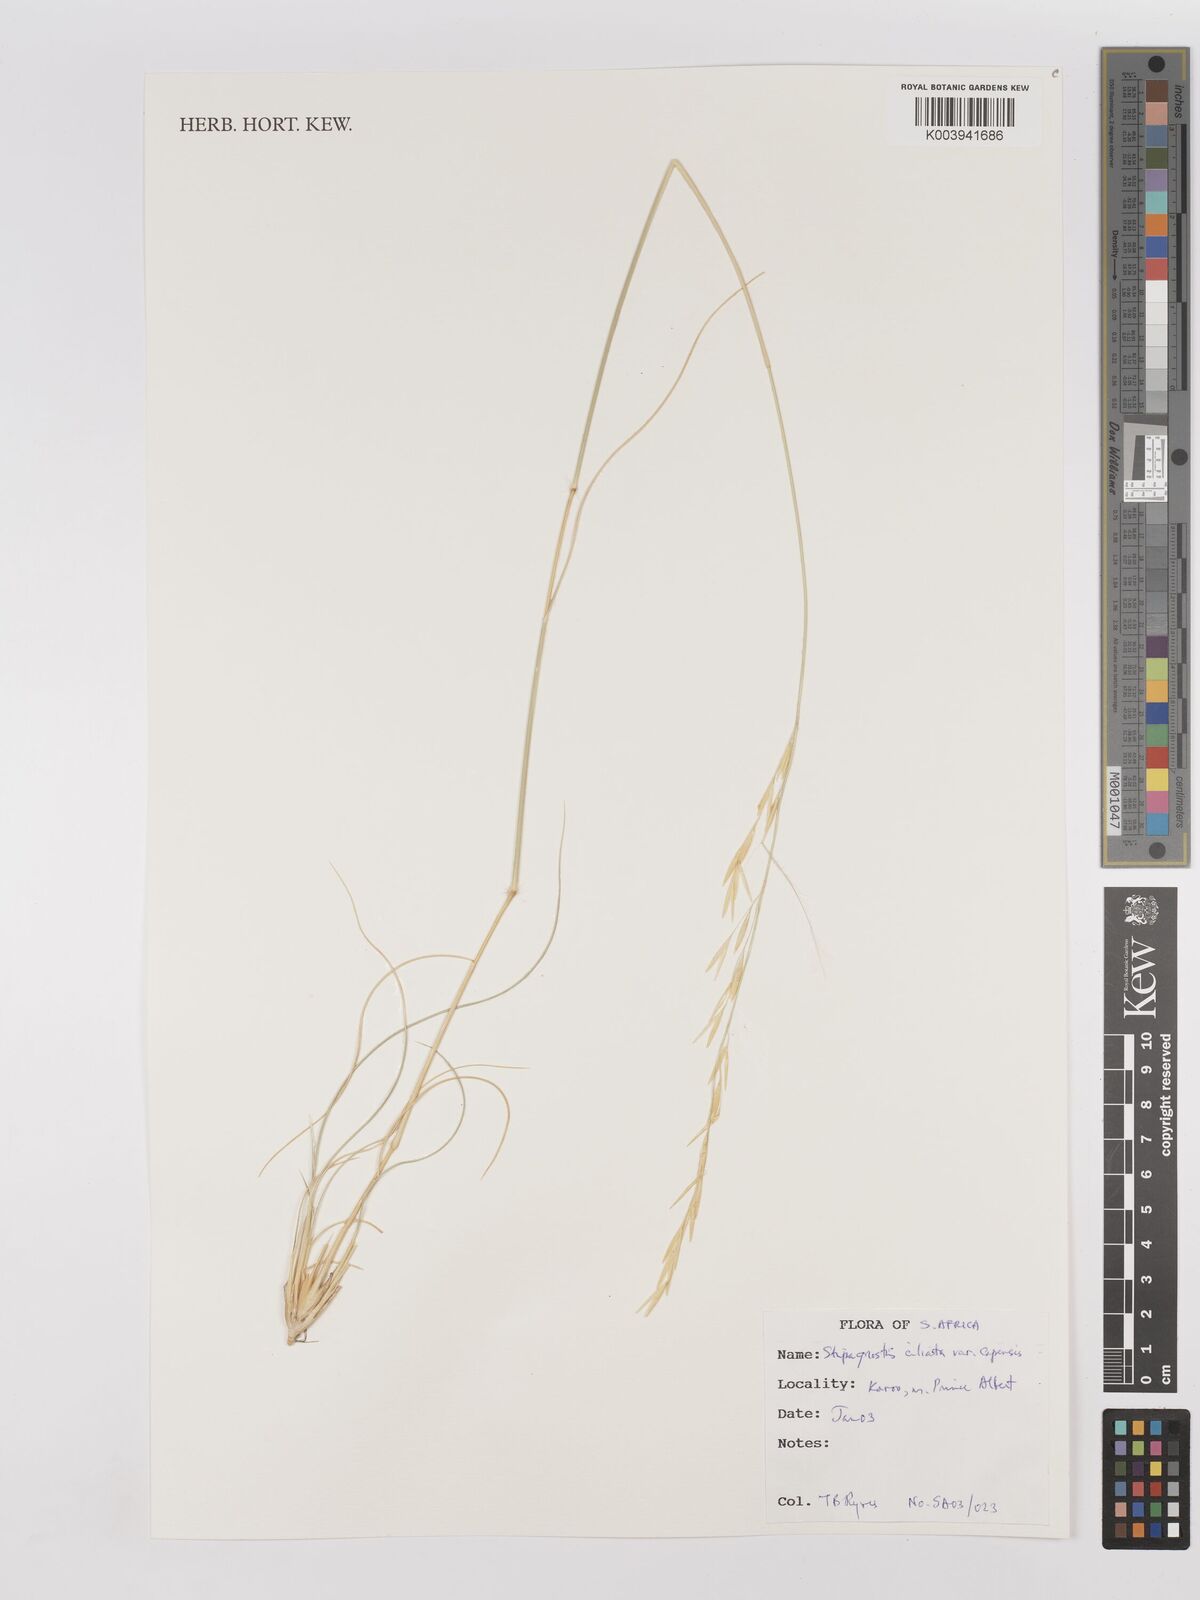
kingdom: Plantae
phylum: Tracheophyta
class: Liliopsida
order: Poales
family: Poaceae
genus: Stipagrostis
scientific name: Stipagrostis ciliata
